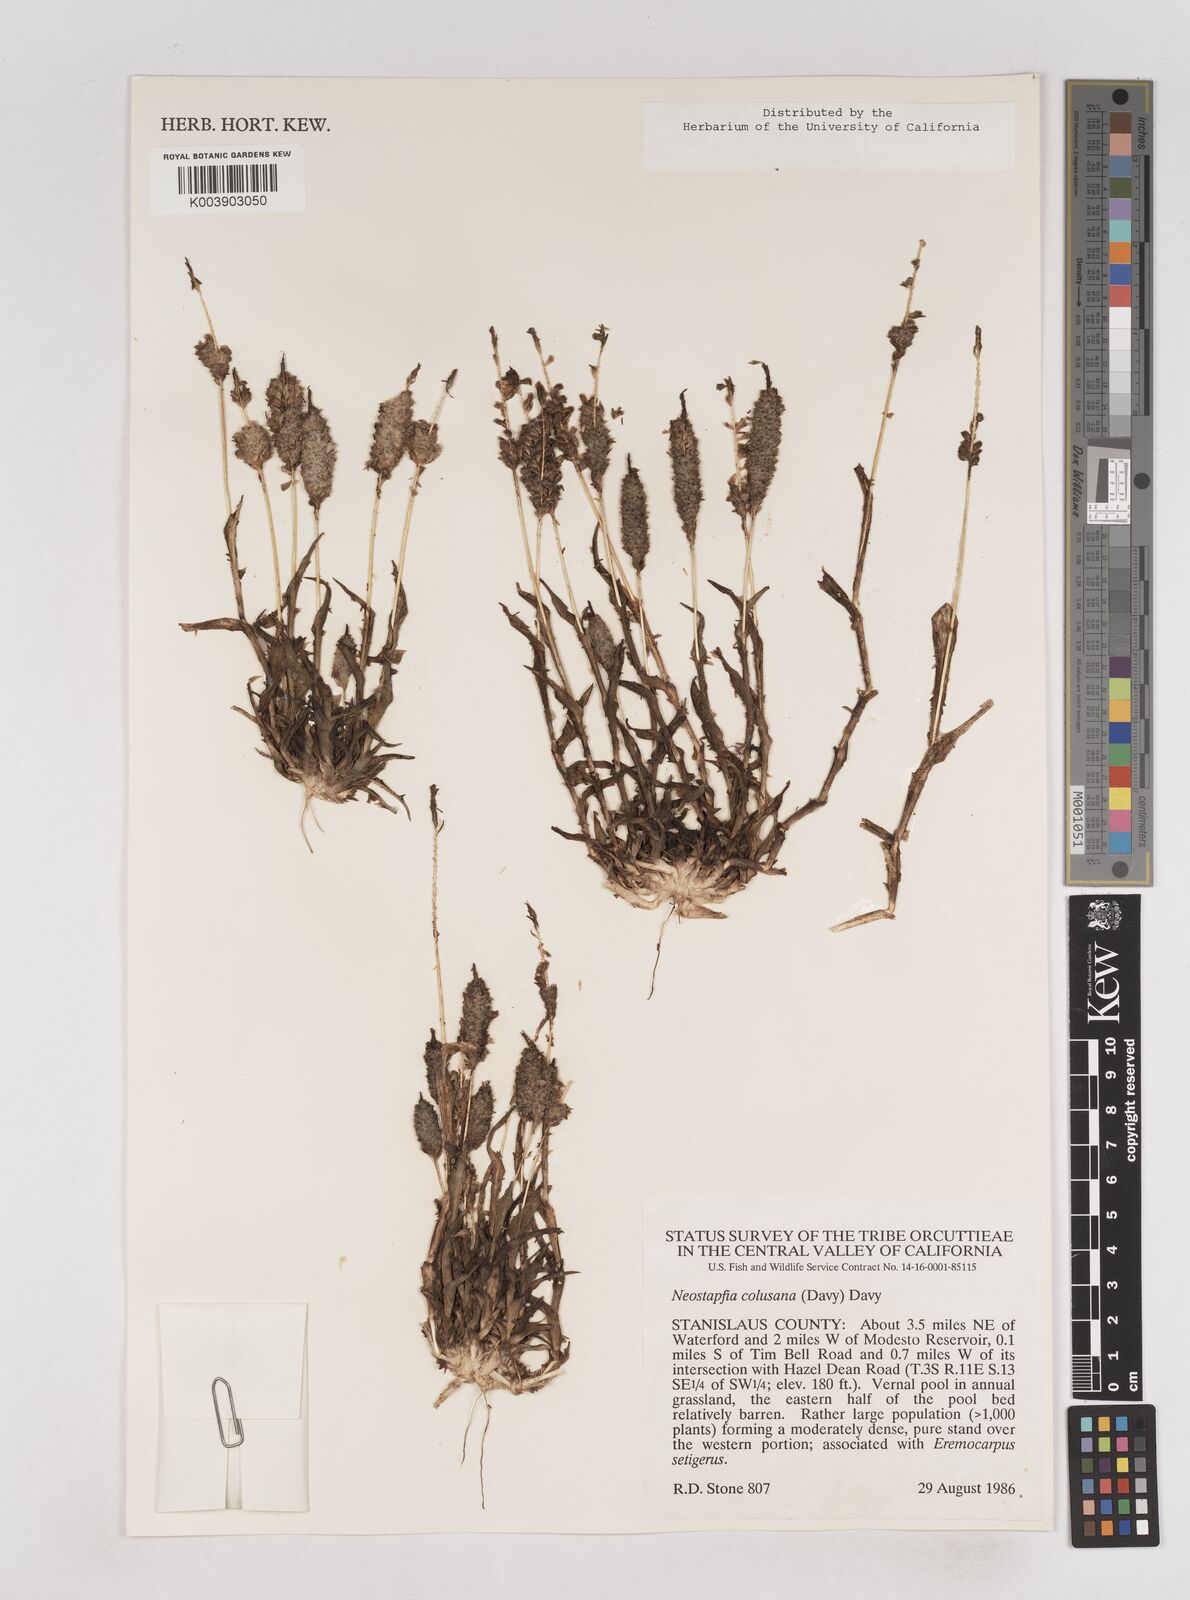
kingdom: Plantae
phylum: Tracheophyta
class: Liliopsida
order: Poales
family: Poaceae
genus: Neostapfia
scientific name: Neostapfia colusana
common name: Colusa grass
